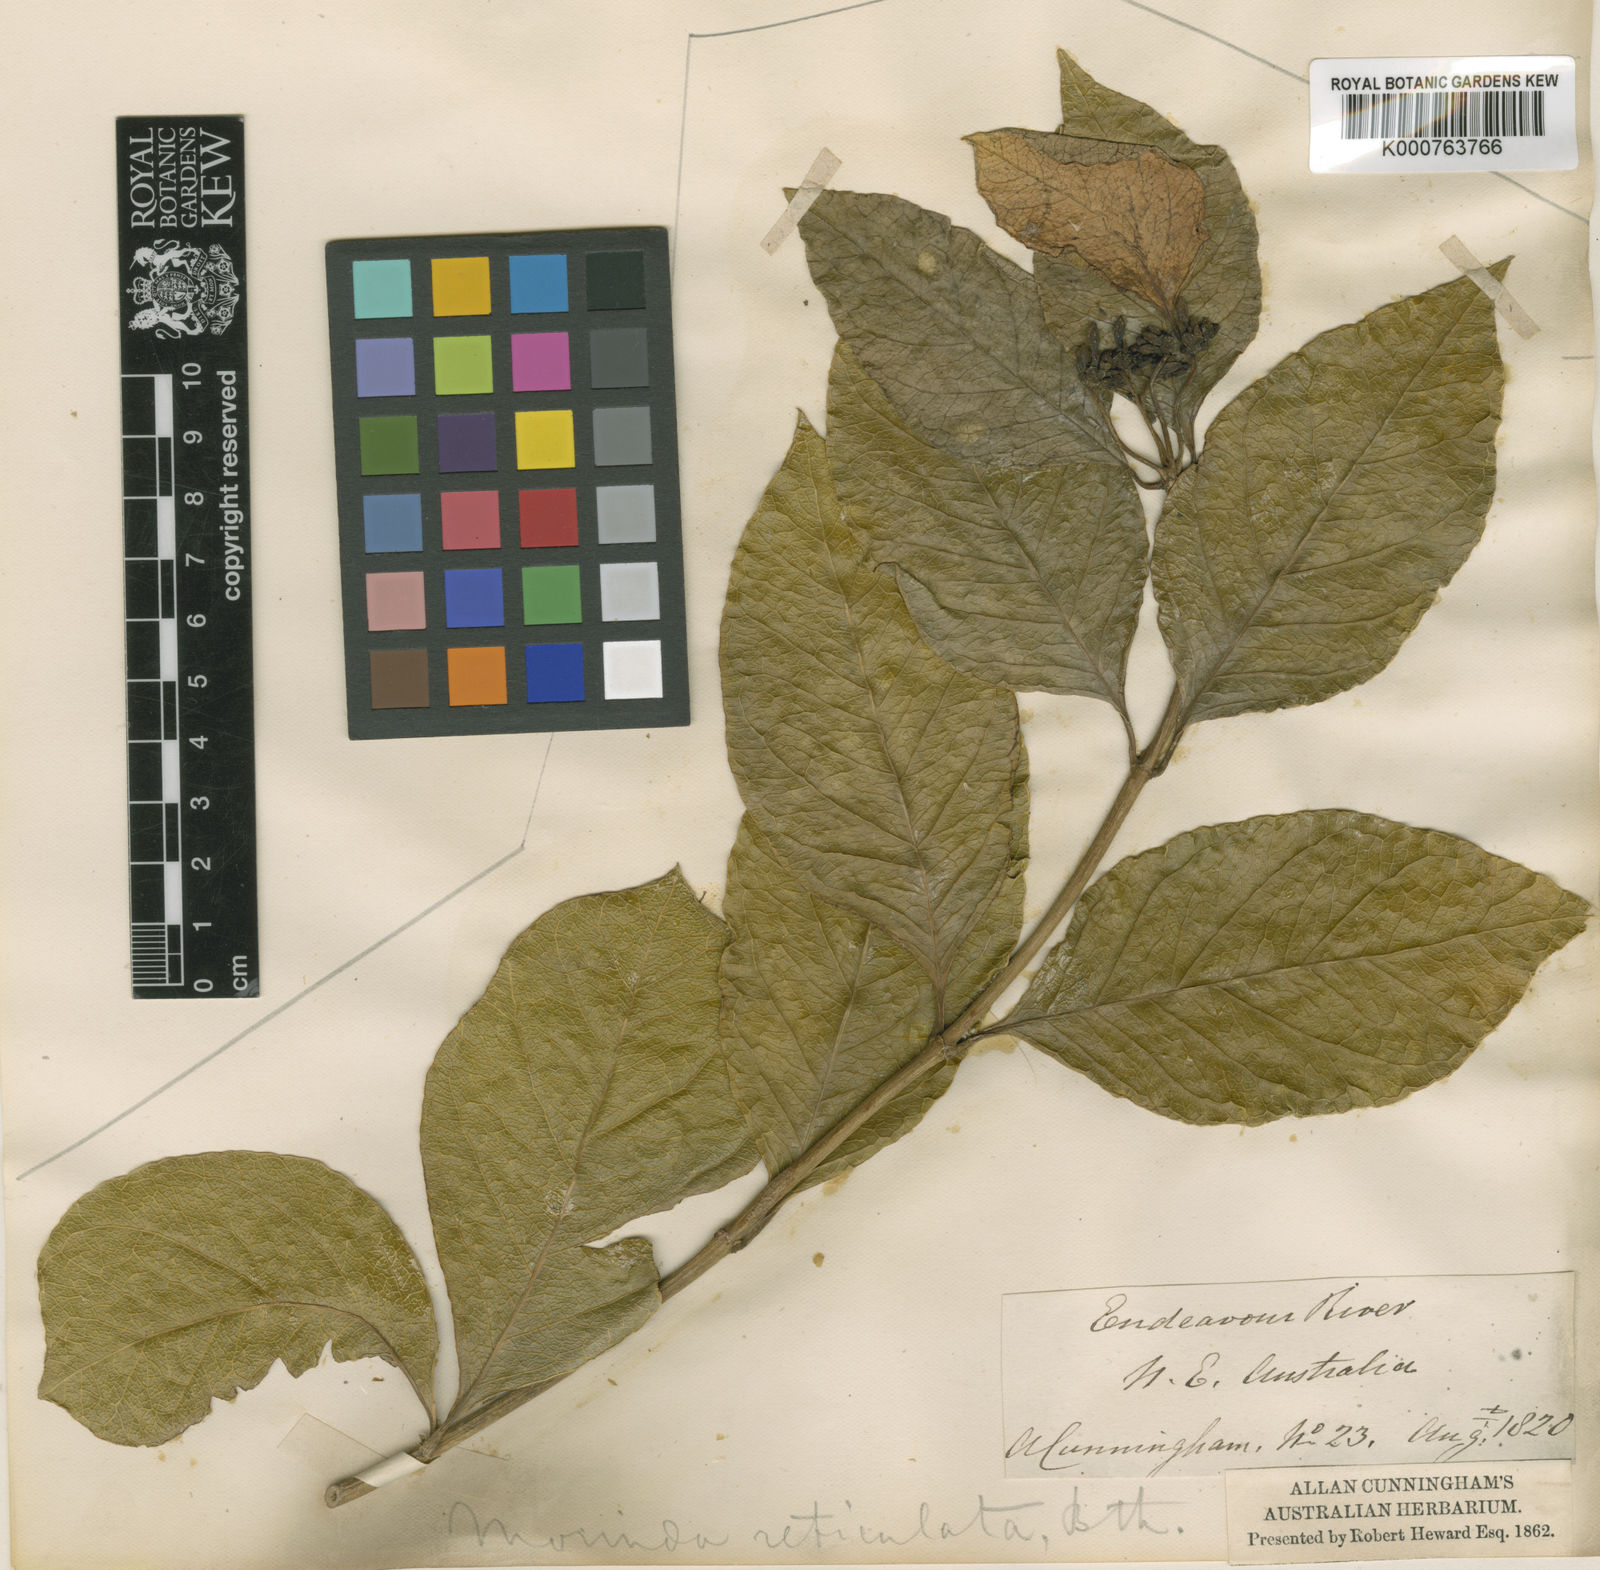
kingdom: Plantae
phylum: Tracheophyta
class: Magnoliopsida
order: Gentianales
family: Rubiaceae
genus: Gynochthodes
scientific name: Gynochthodes subcaudata
